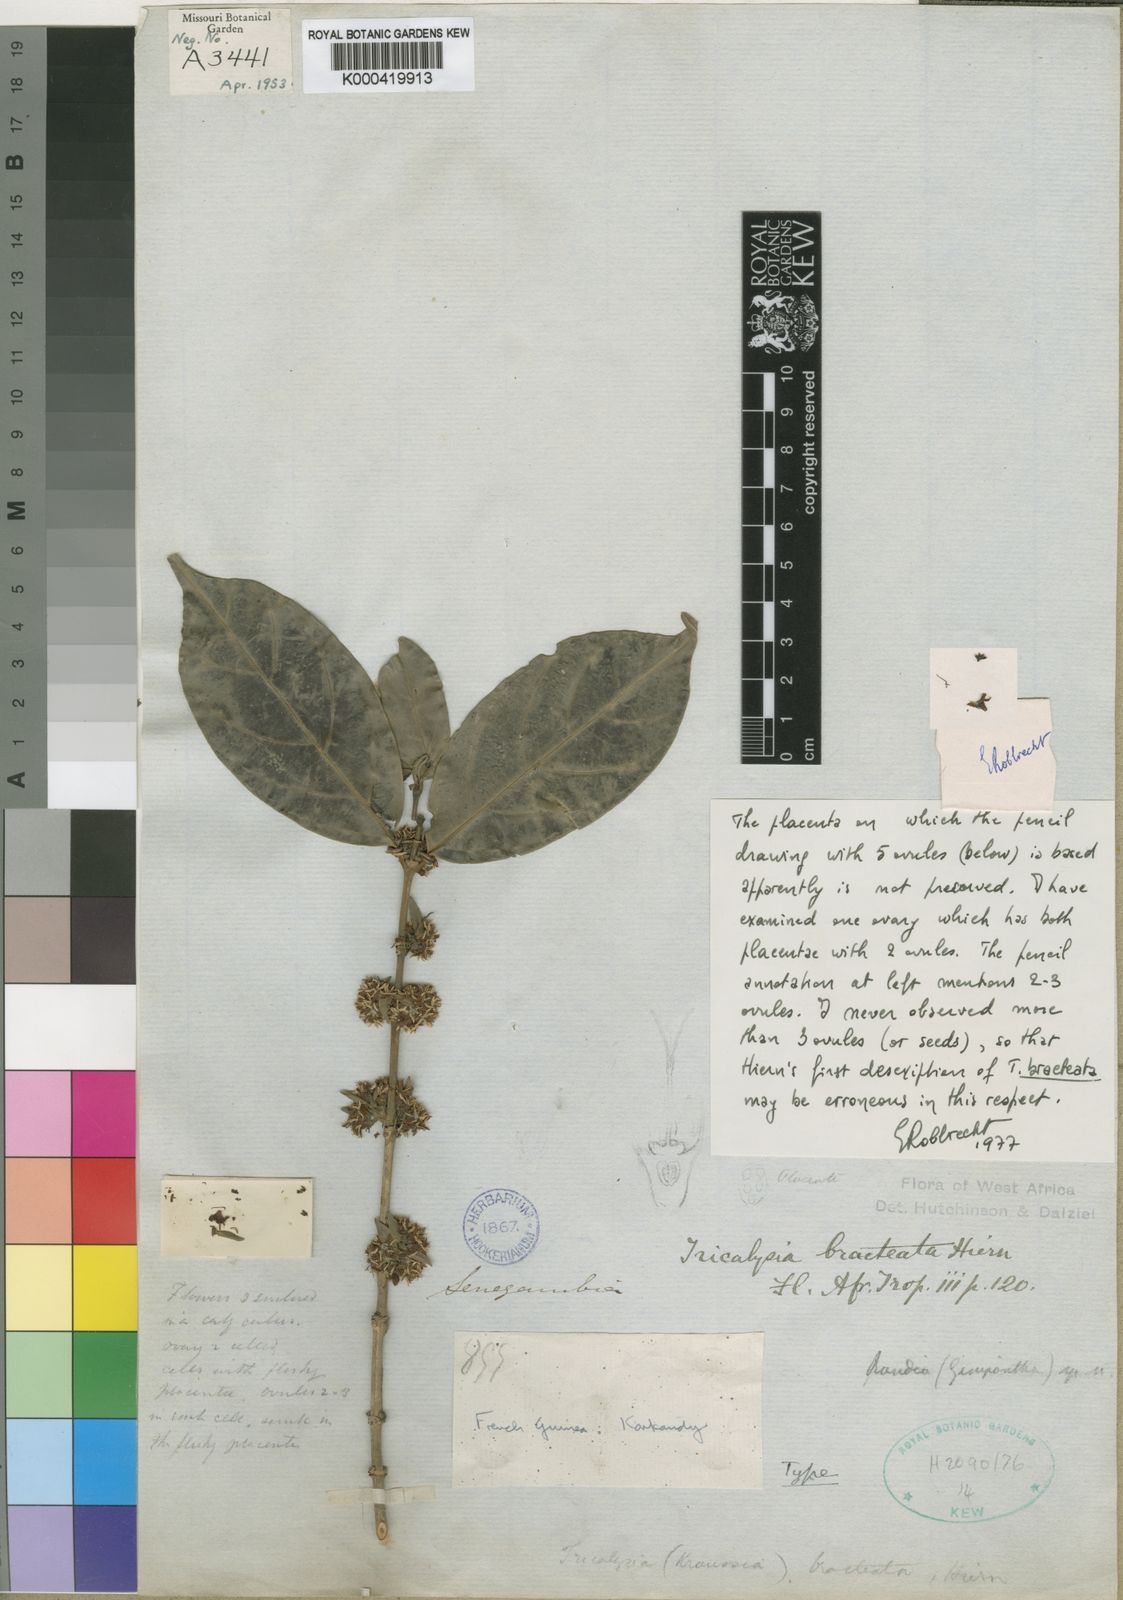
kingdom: Plantae
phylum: Tracheophyta
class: Magnoliopsida
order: Gentianales
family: Rubiaceae
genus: Empogona
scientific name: Empogona bracteata
